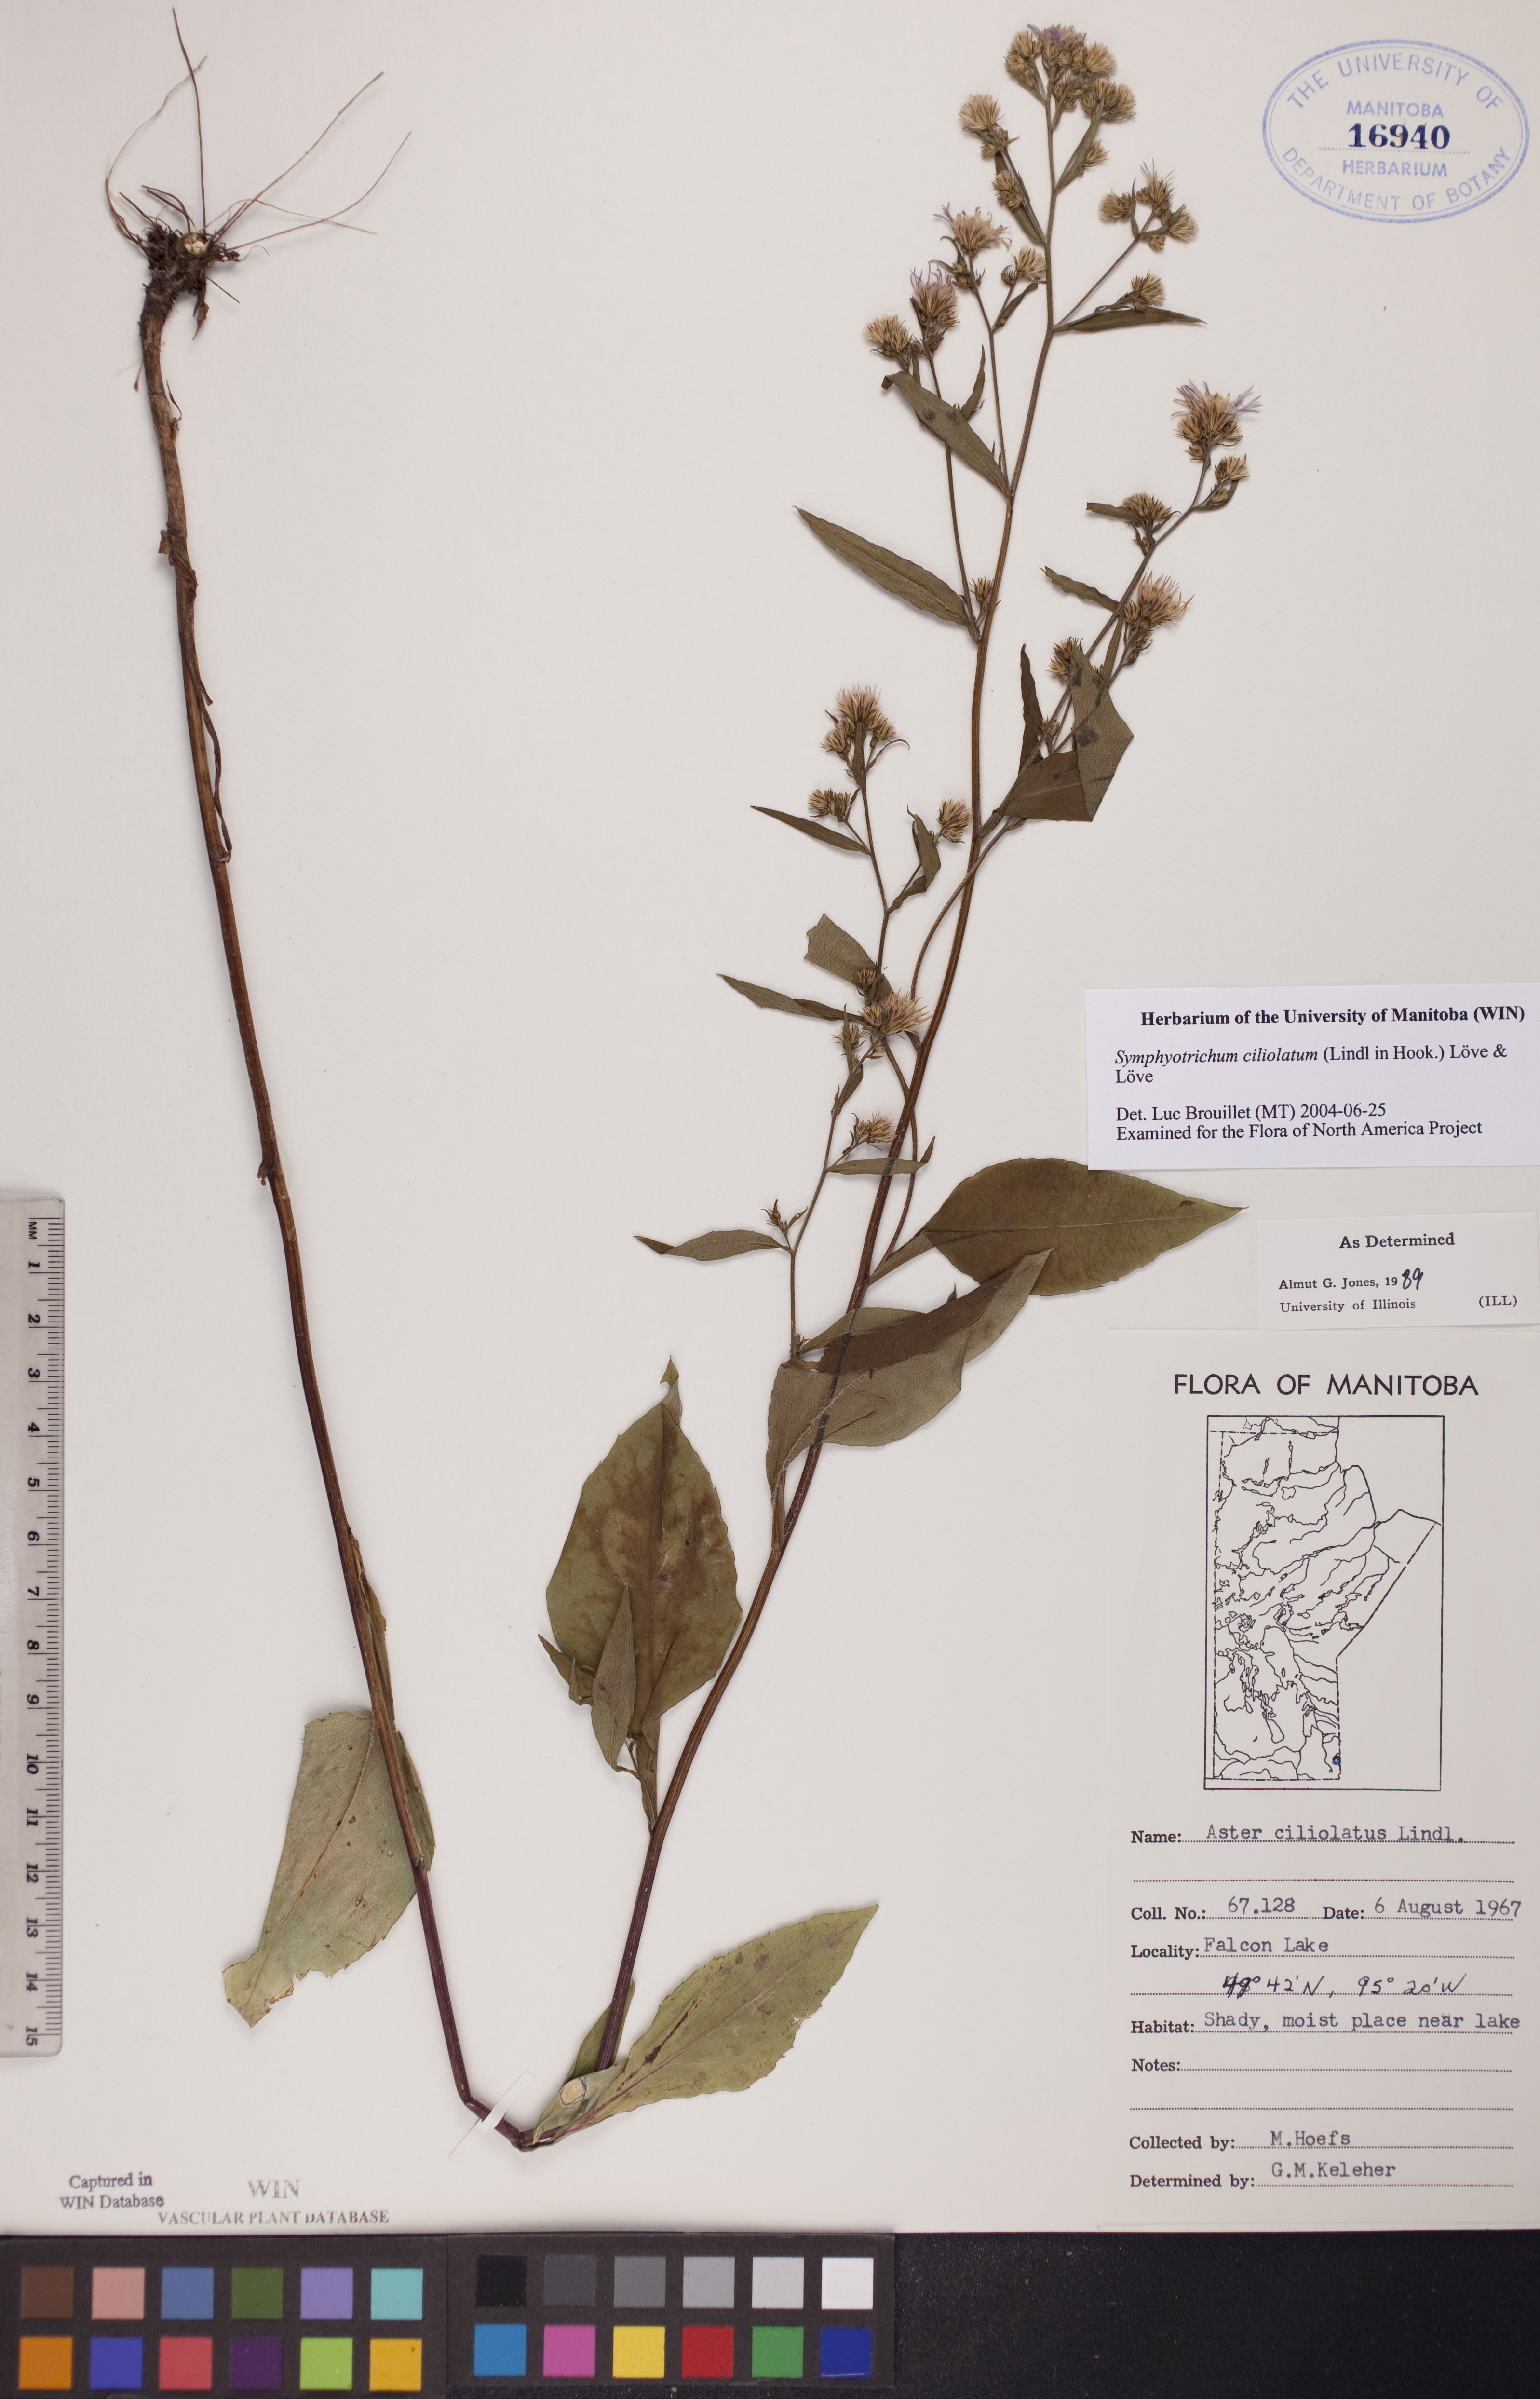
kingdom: Plantae
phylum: Tracheophyta
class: Magnoliopsida
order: Asterales
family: Asteraceae
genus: Symphyotrichum
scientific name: Symphyotrichum ciliolatum
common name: Fringed blue aster
